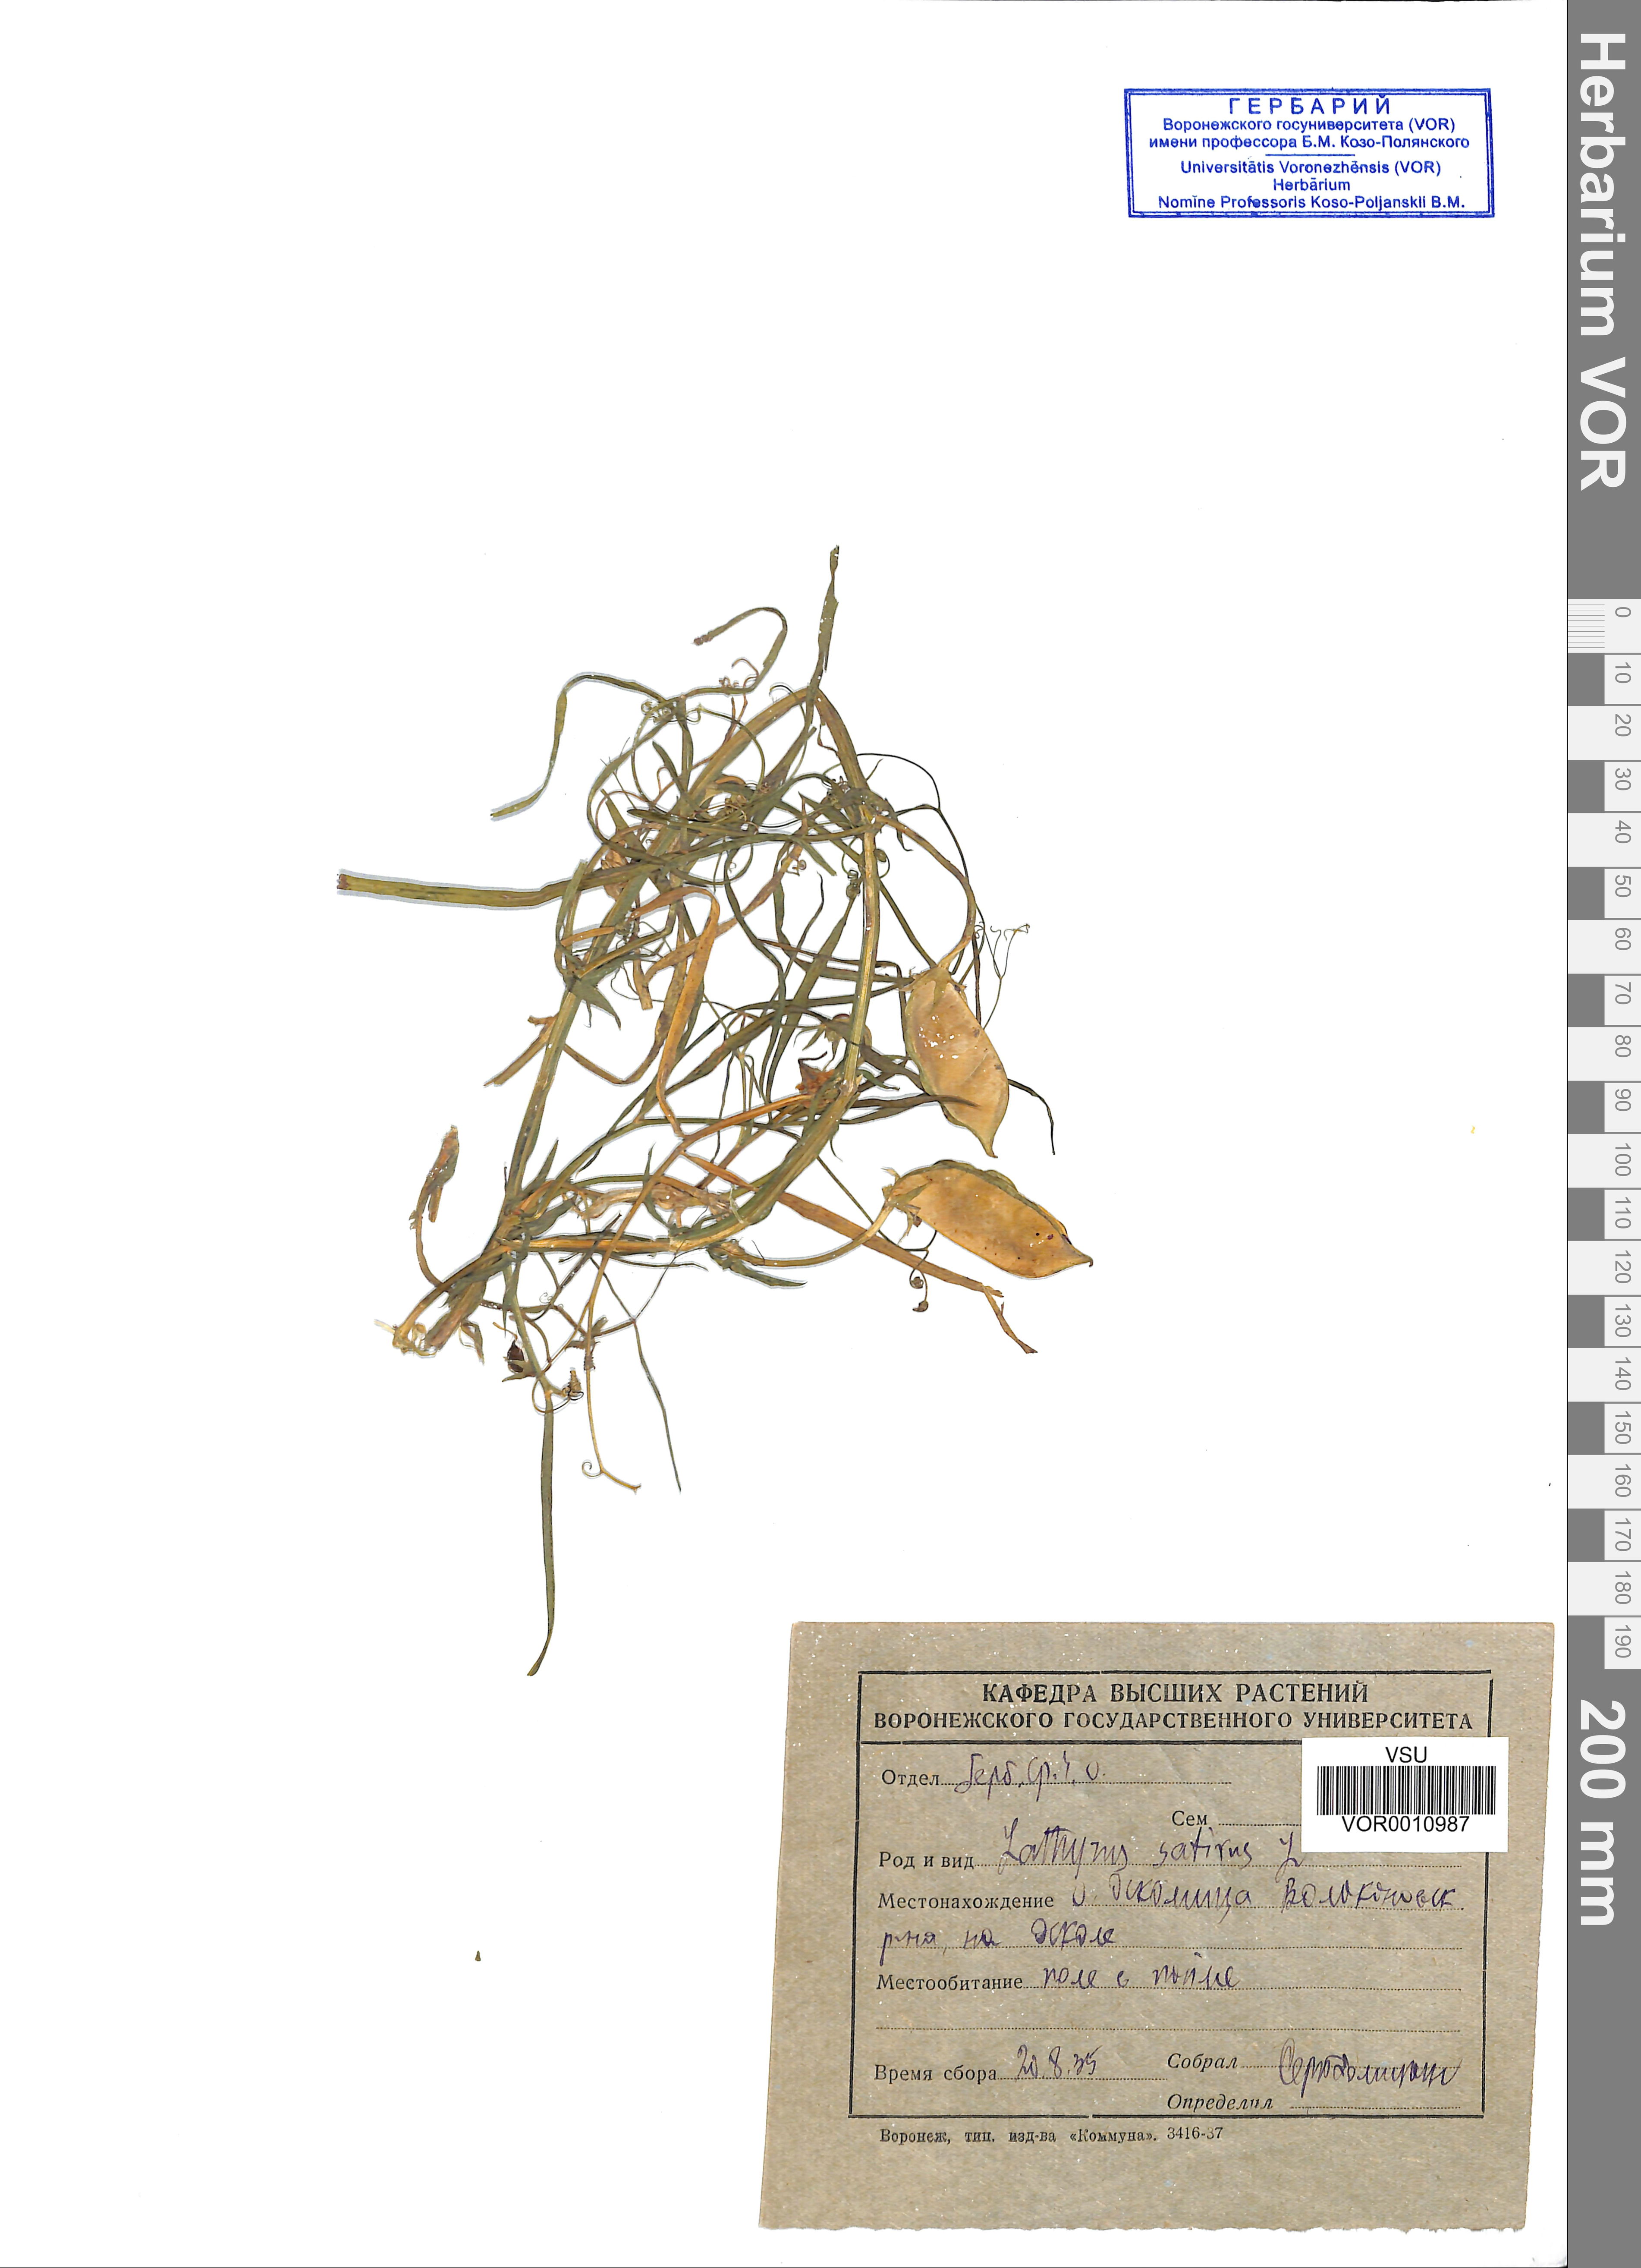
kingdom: Plantae
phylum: Tracheophyta
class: Magnoliopsida
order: Fabales
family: Fabaceae
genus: Lathyrus
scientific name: Lathyrus sativus
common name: Indian pea
